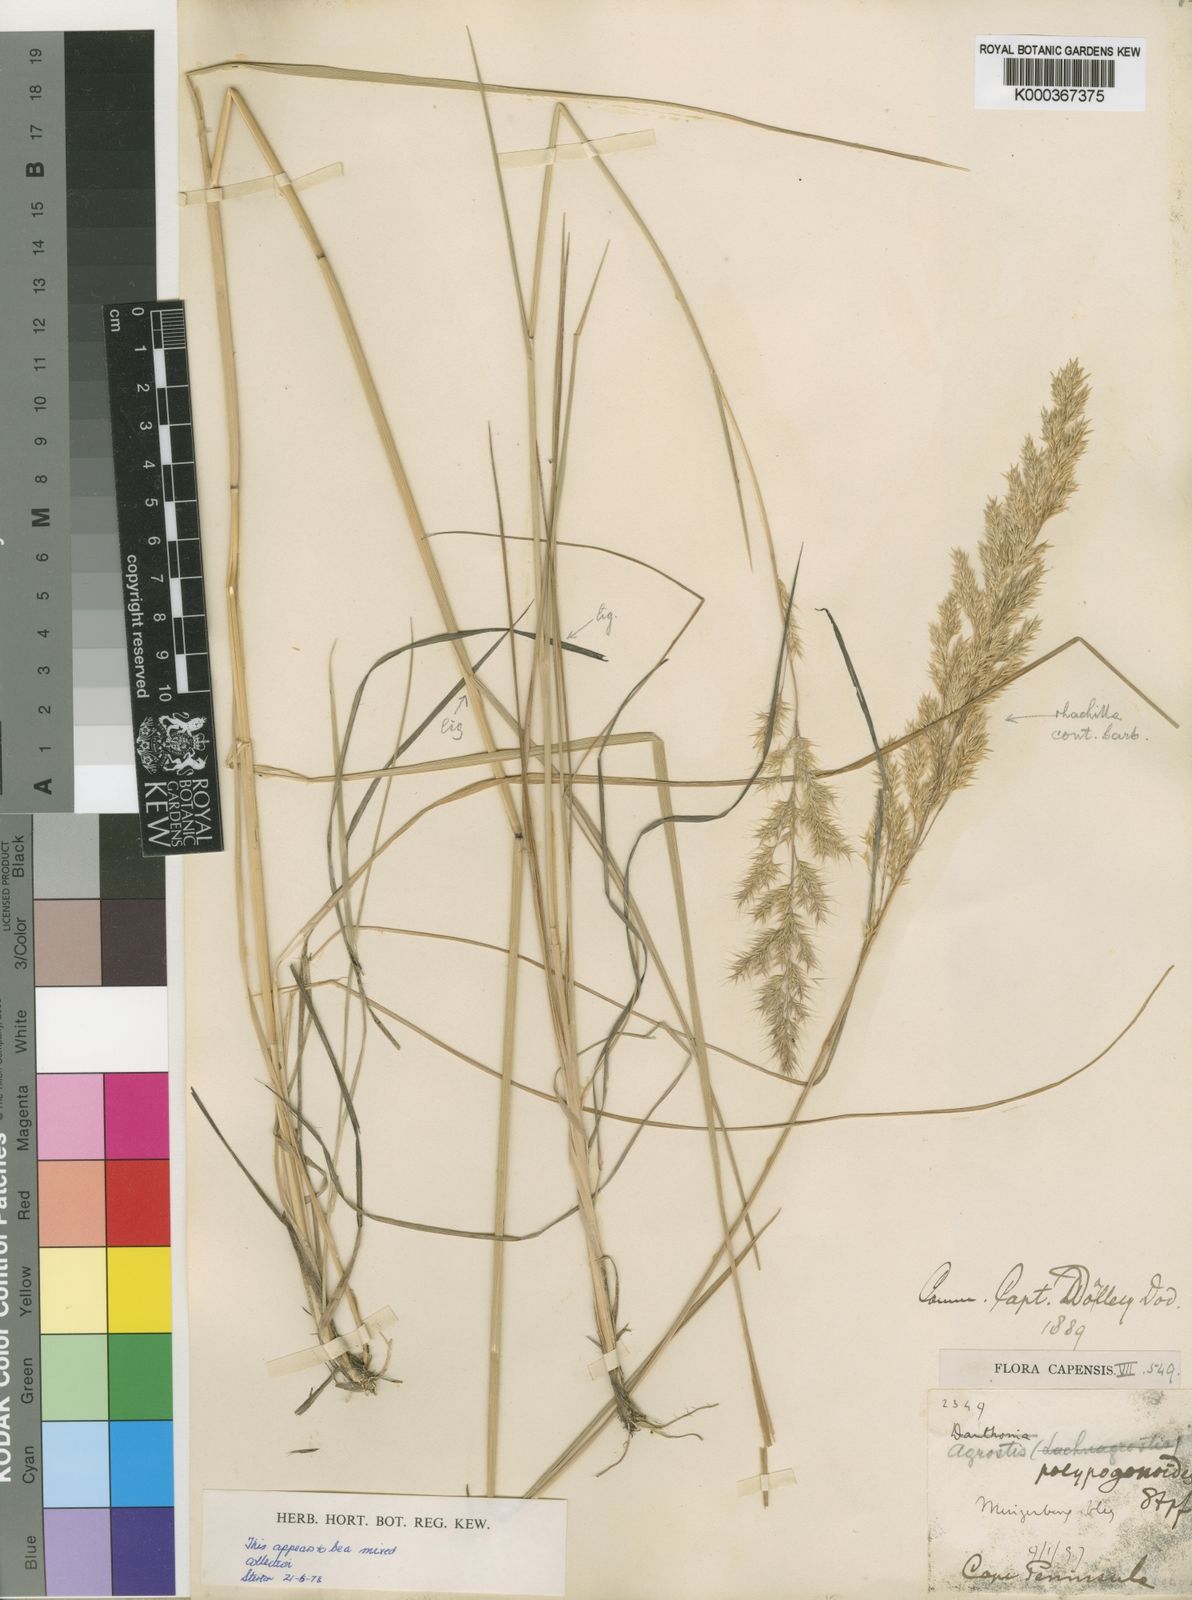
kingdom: Plantae
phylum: Tracheophyta
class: Liliopsida
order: Poales
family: Poaceae
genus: Polypogon
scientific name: Polypogon
